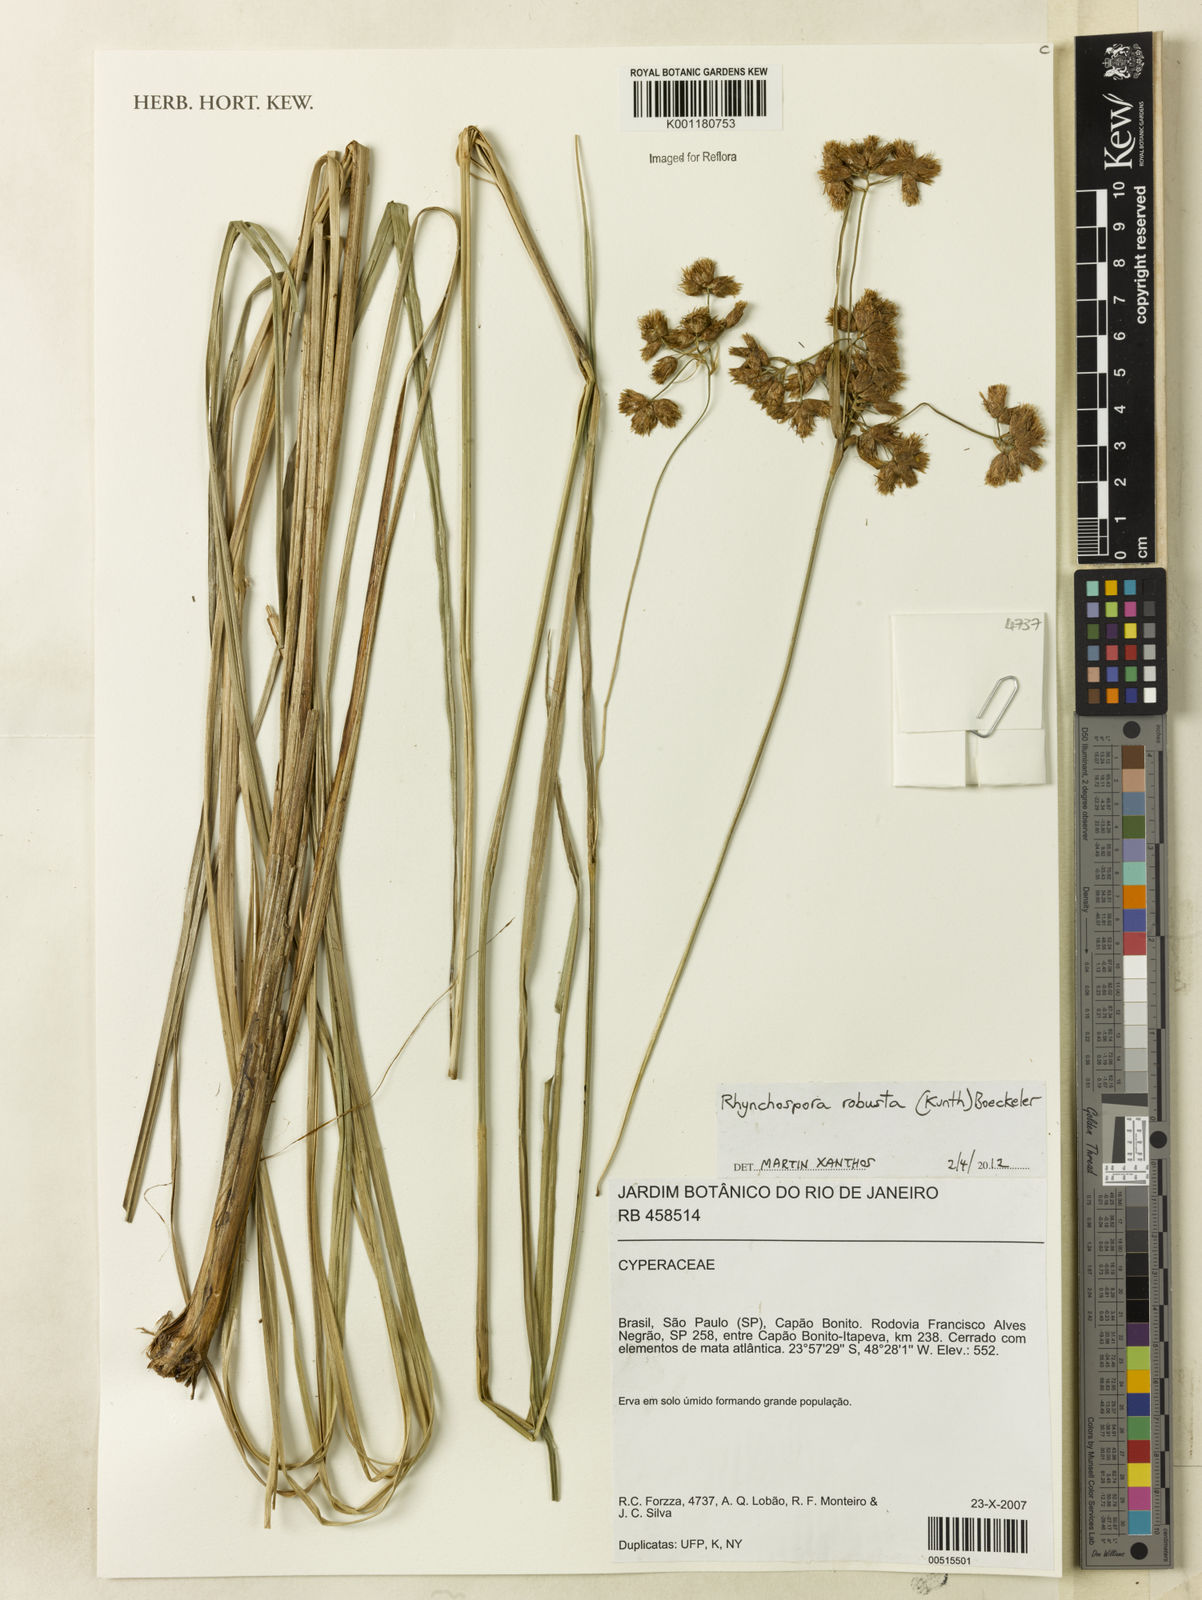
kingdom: Plantae
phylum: Tracheophyta
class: Liliopsida
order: Poales
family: Cyperaceae
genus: Rhynchospora
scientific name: Rhynchospora robusta
